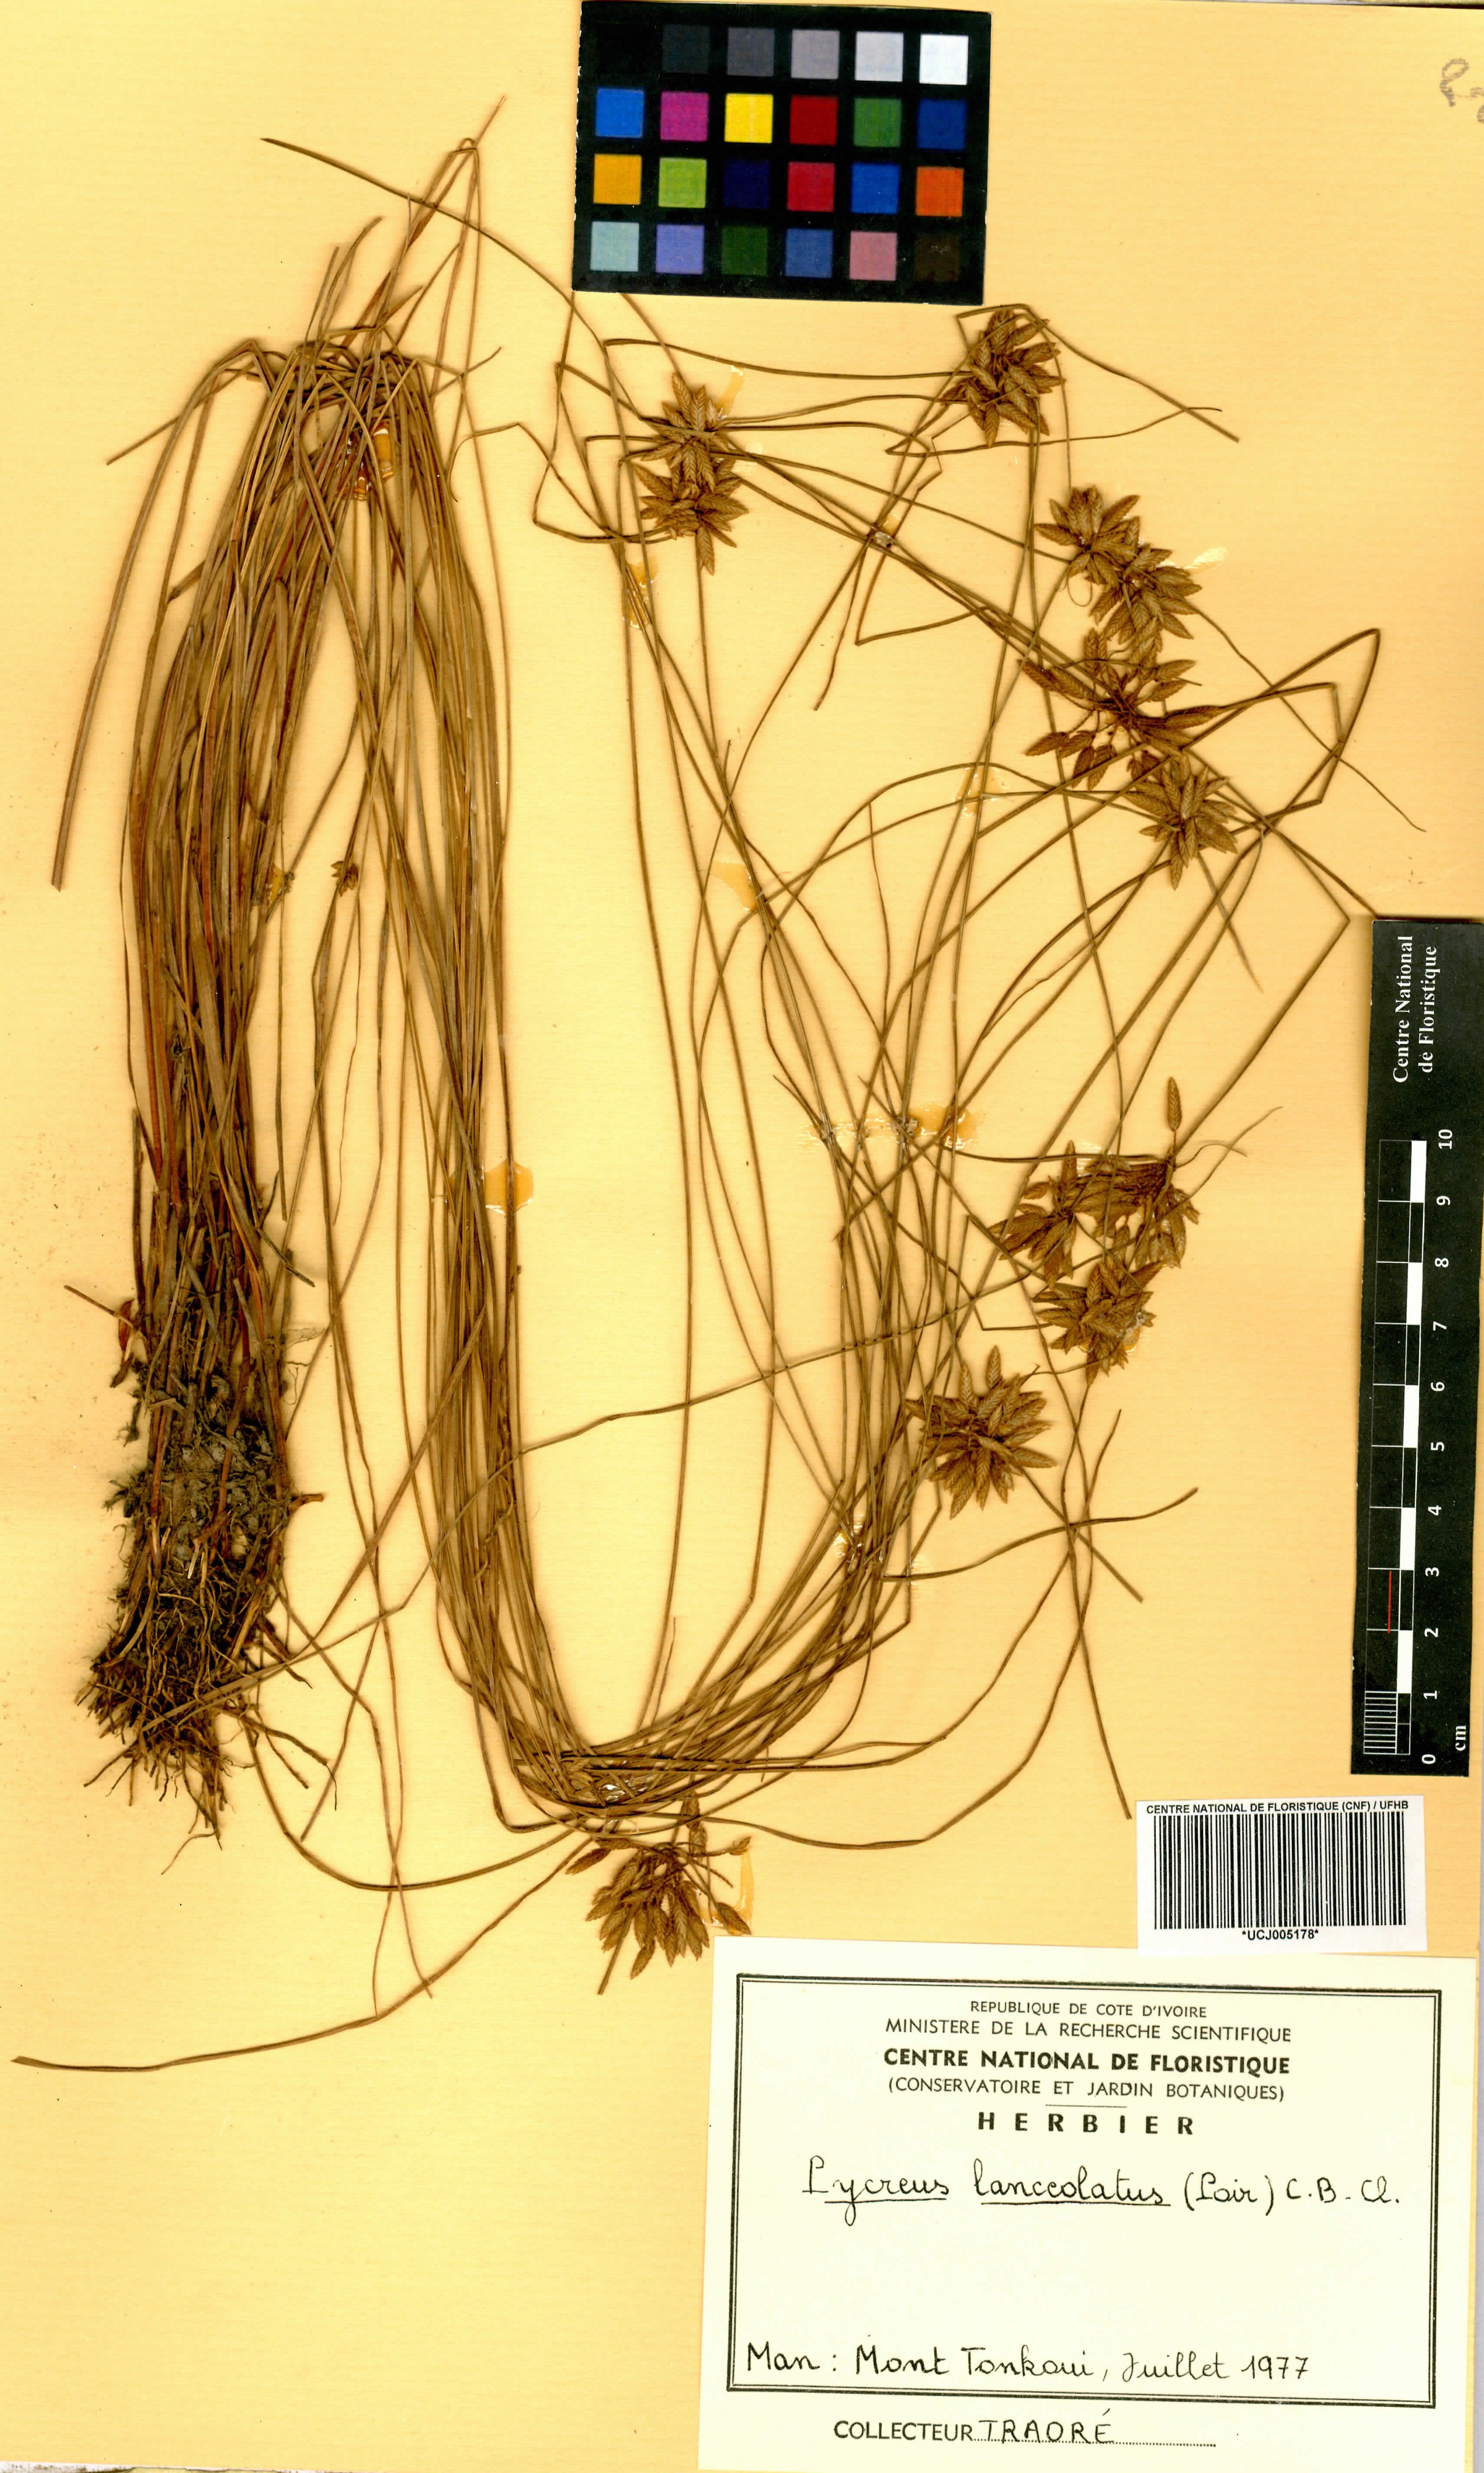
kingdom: Plantae
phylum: Tracheophyta
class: Liliopsida
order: Poales
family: Cyperaceae
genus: Cyperus
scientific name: Cyperus lanceolatus
